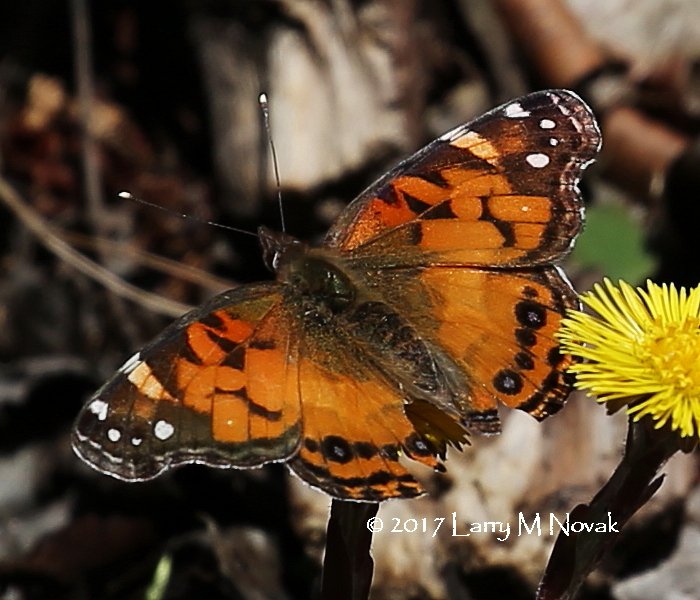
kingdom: Animalia
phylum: Arthropoda
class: Insecta
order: Lepidoptera
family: Nymphalidae
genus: Vanessa
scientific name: Vanessa virginiensis
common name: American Lady
